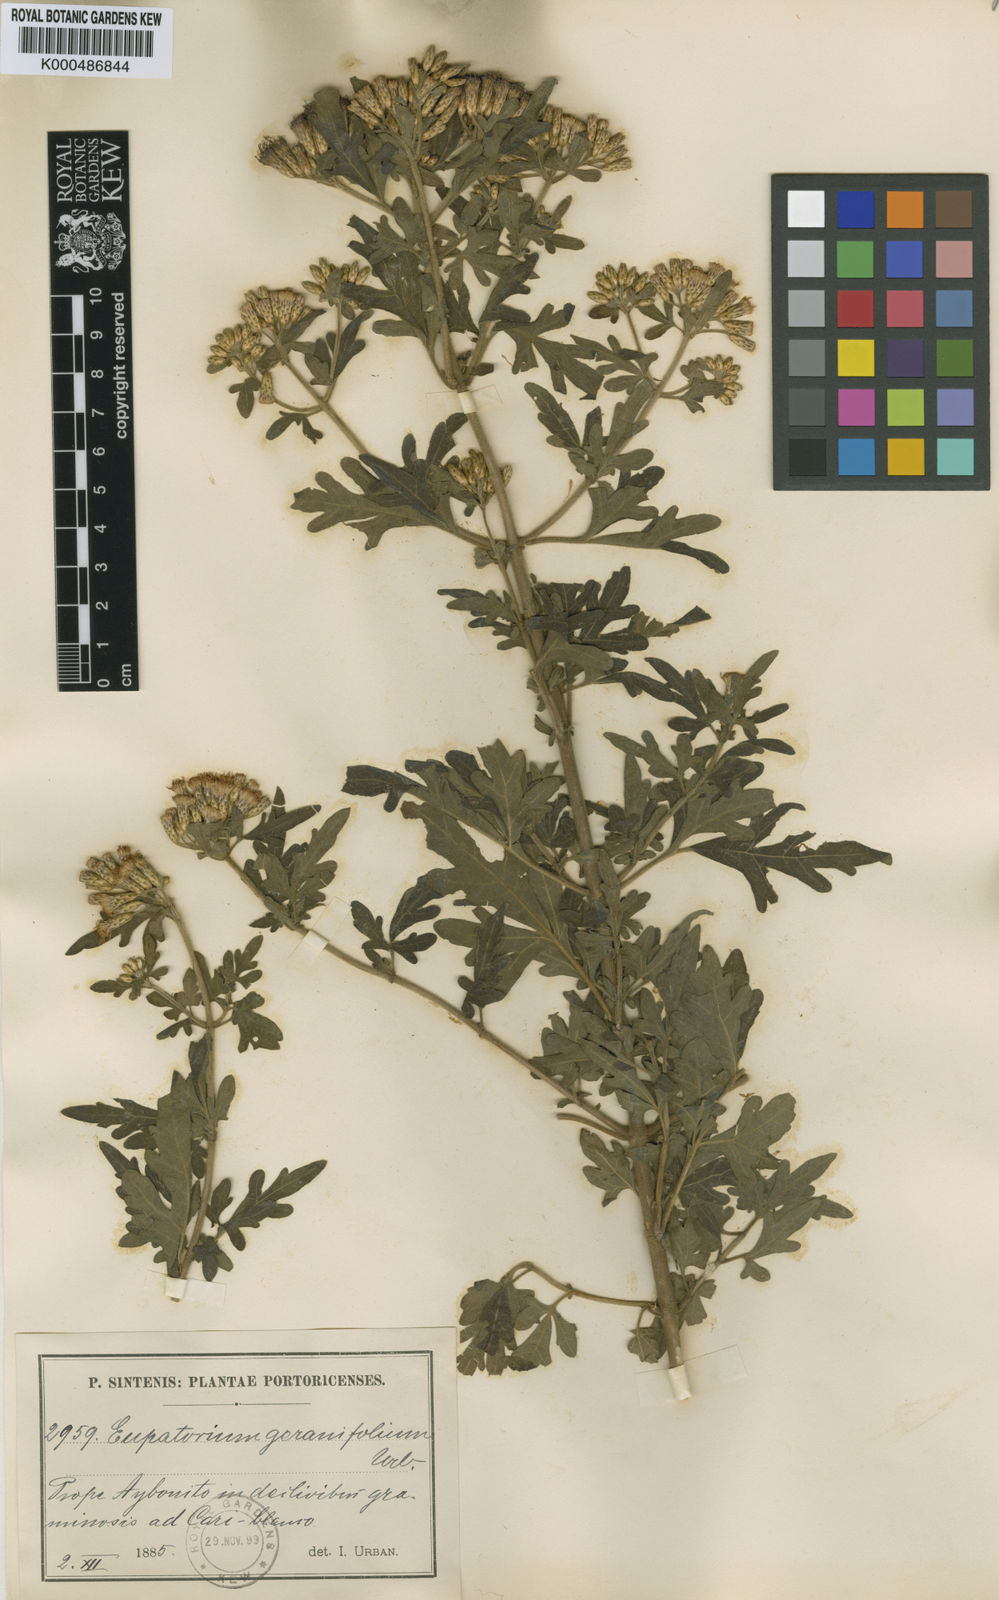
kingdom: Plantae
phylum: Tracheophyta
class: Magnoliopsida
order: Asterales
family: Asteraceae
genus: Chromolaena
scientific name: Chromolaena geranifolia
